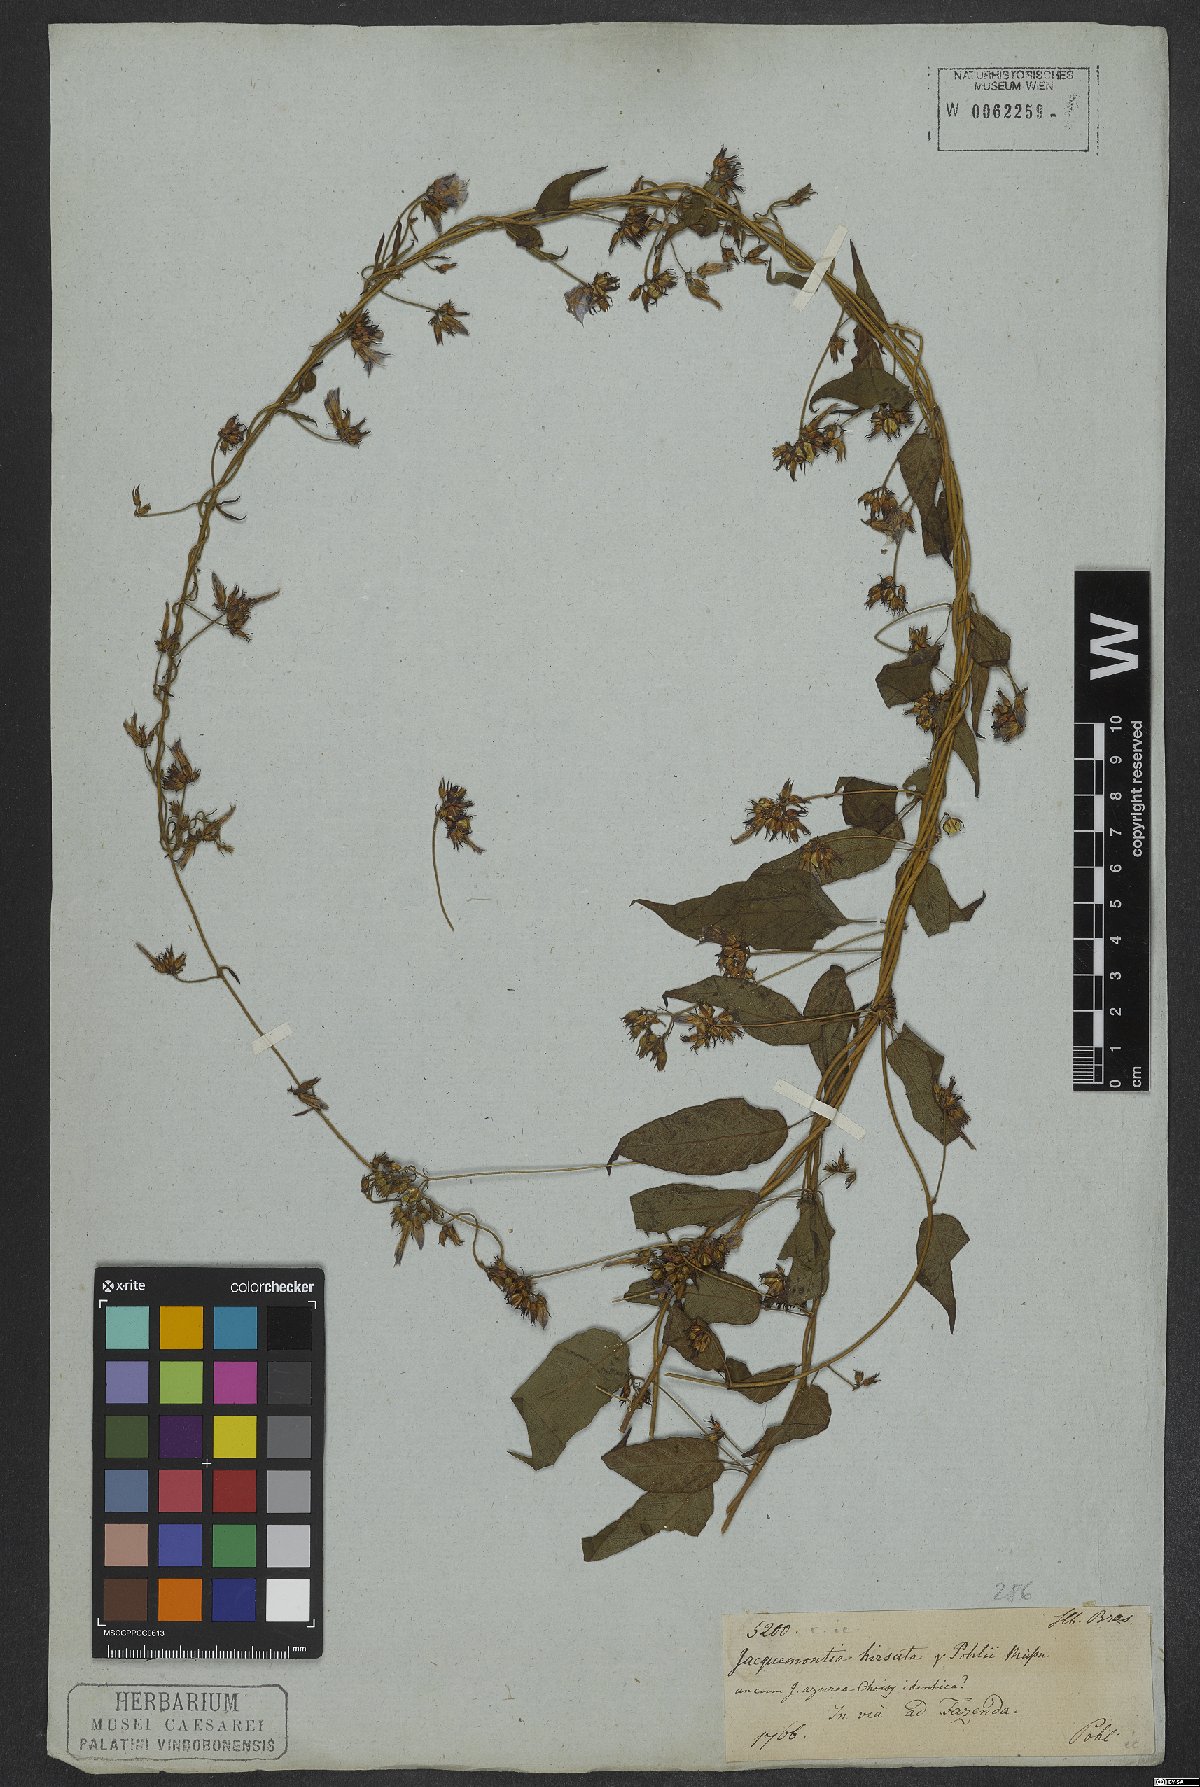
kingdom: Plantae
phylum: Tracheophyta
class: Magnoliopsida
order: Solanales
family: Convolvulaceae
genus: Jacquemontia
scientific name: Jacquemontia sphaerostigma
